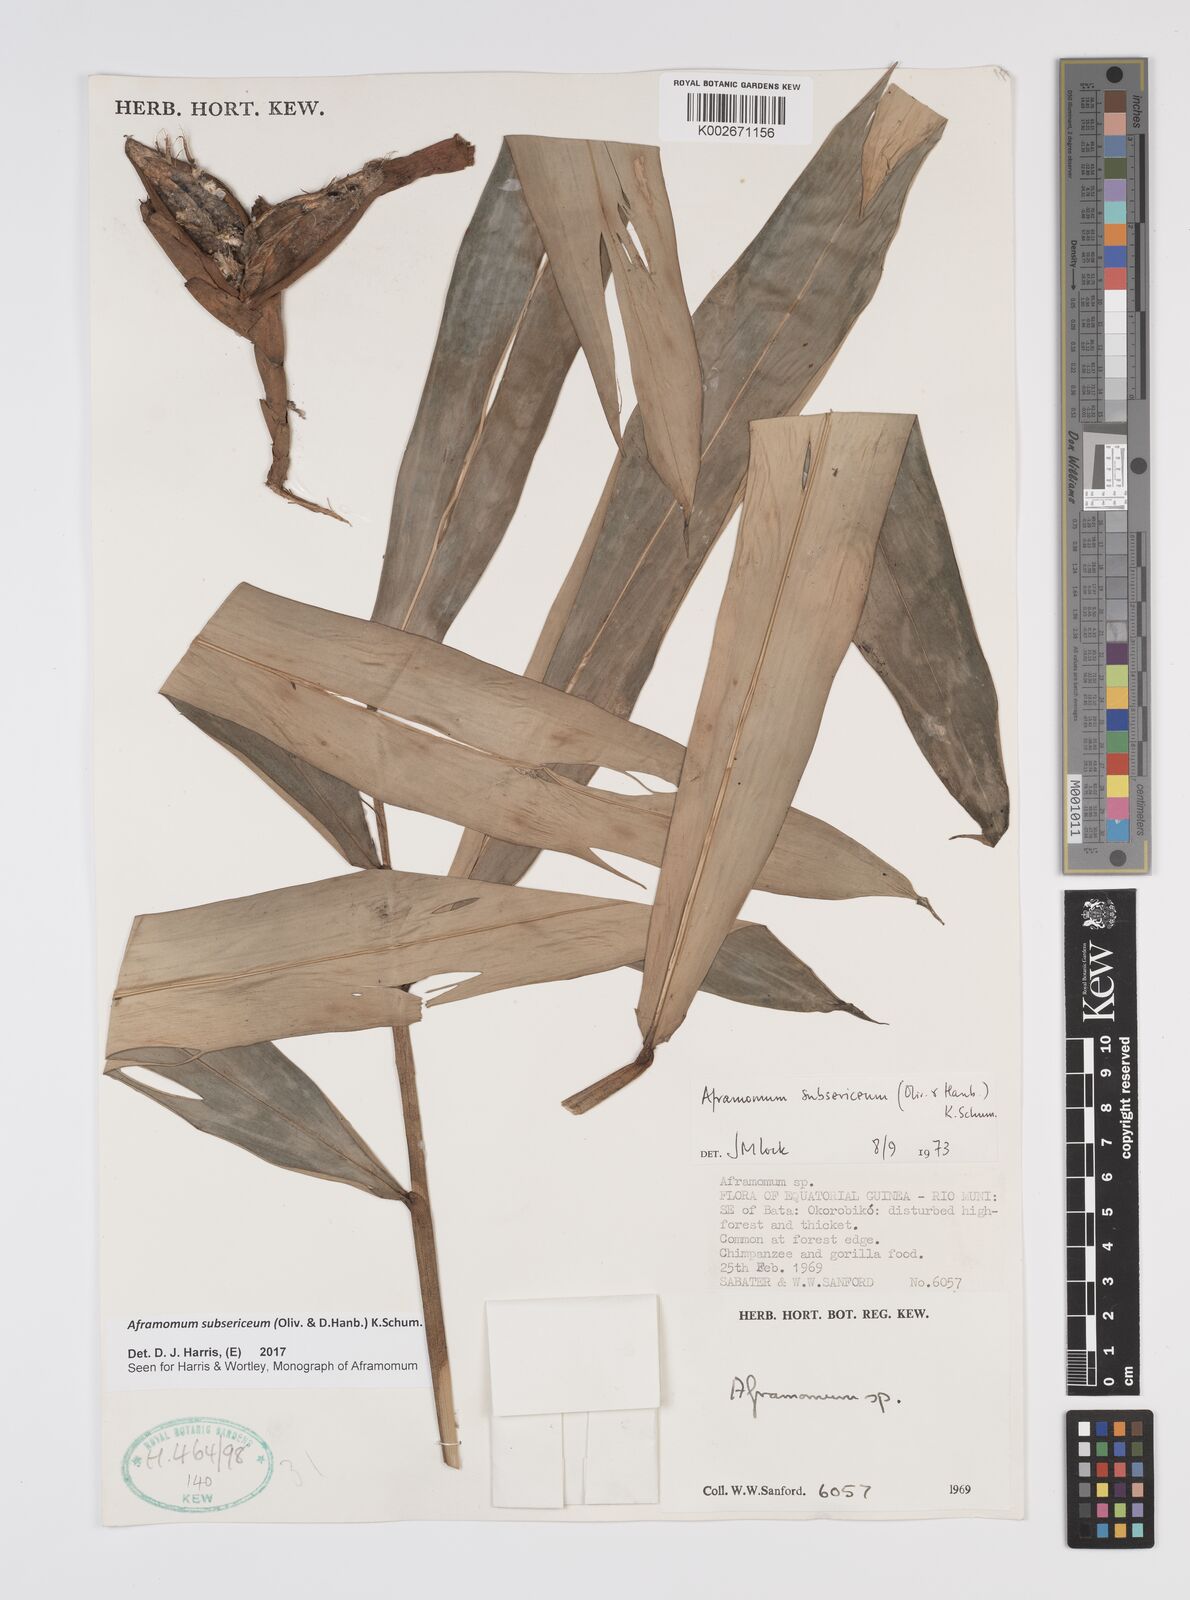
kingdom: Plantae
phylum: Tracheophyta
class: Liliopsida
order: Zingiberales
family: Zingiberaceae
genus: Aframomum
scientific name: Aframomum subsericeum
